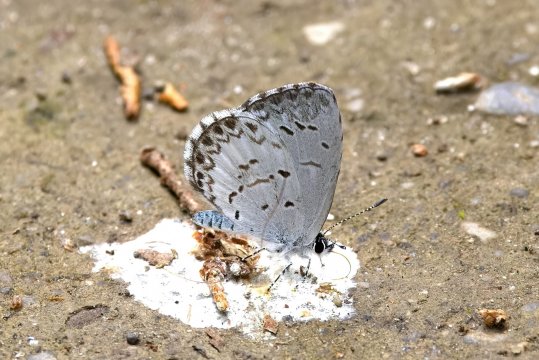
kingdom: Animalia
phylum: Arthropoda
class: Insecta
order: Lepidoptera
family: Lycaenidae
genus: Celastrina
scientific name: Celastrina lucia
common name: Northern Spring Azure
